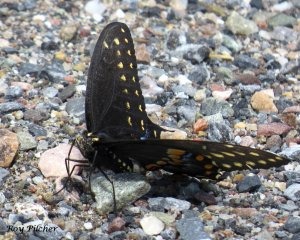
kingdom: Animalia
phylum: Arthropoda
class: Insecta
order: Lepidoptera
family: Papilionidae
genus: Papilio
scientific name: Papilio polyxenes
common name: Black Swallowtail
